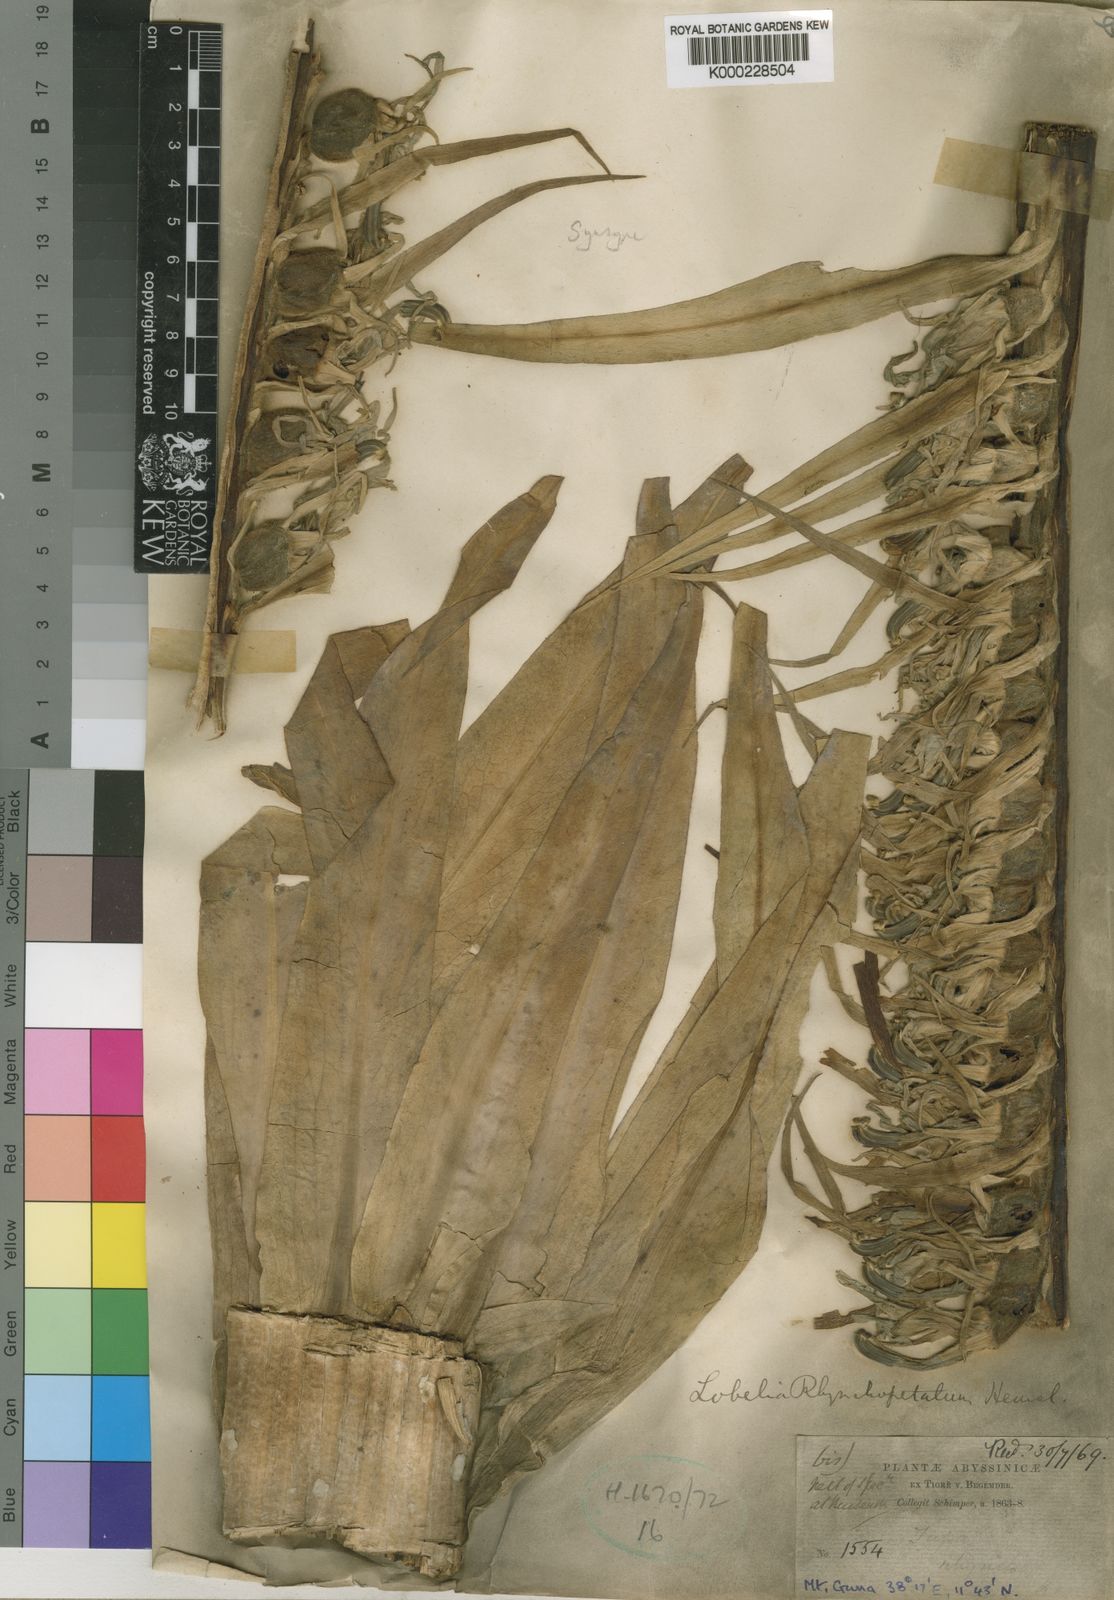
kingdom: Plantae
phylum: Tracheophyta
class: Magnoliopsida
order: Asterales
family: Campanulaceae
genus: Lobelia
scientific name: Lobelia rhynchopetalum
